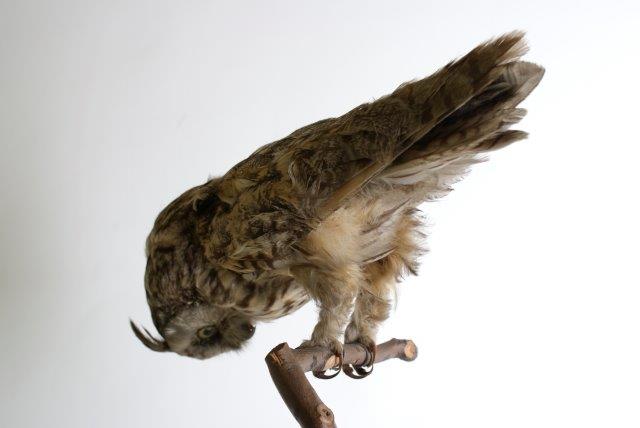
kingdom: Animalia
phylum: Chordata
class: Aves
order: Strigiformes
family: Strigidae
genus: Asio
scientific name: Asio otus
